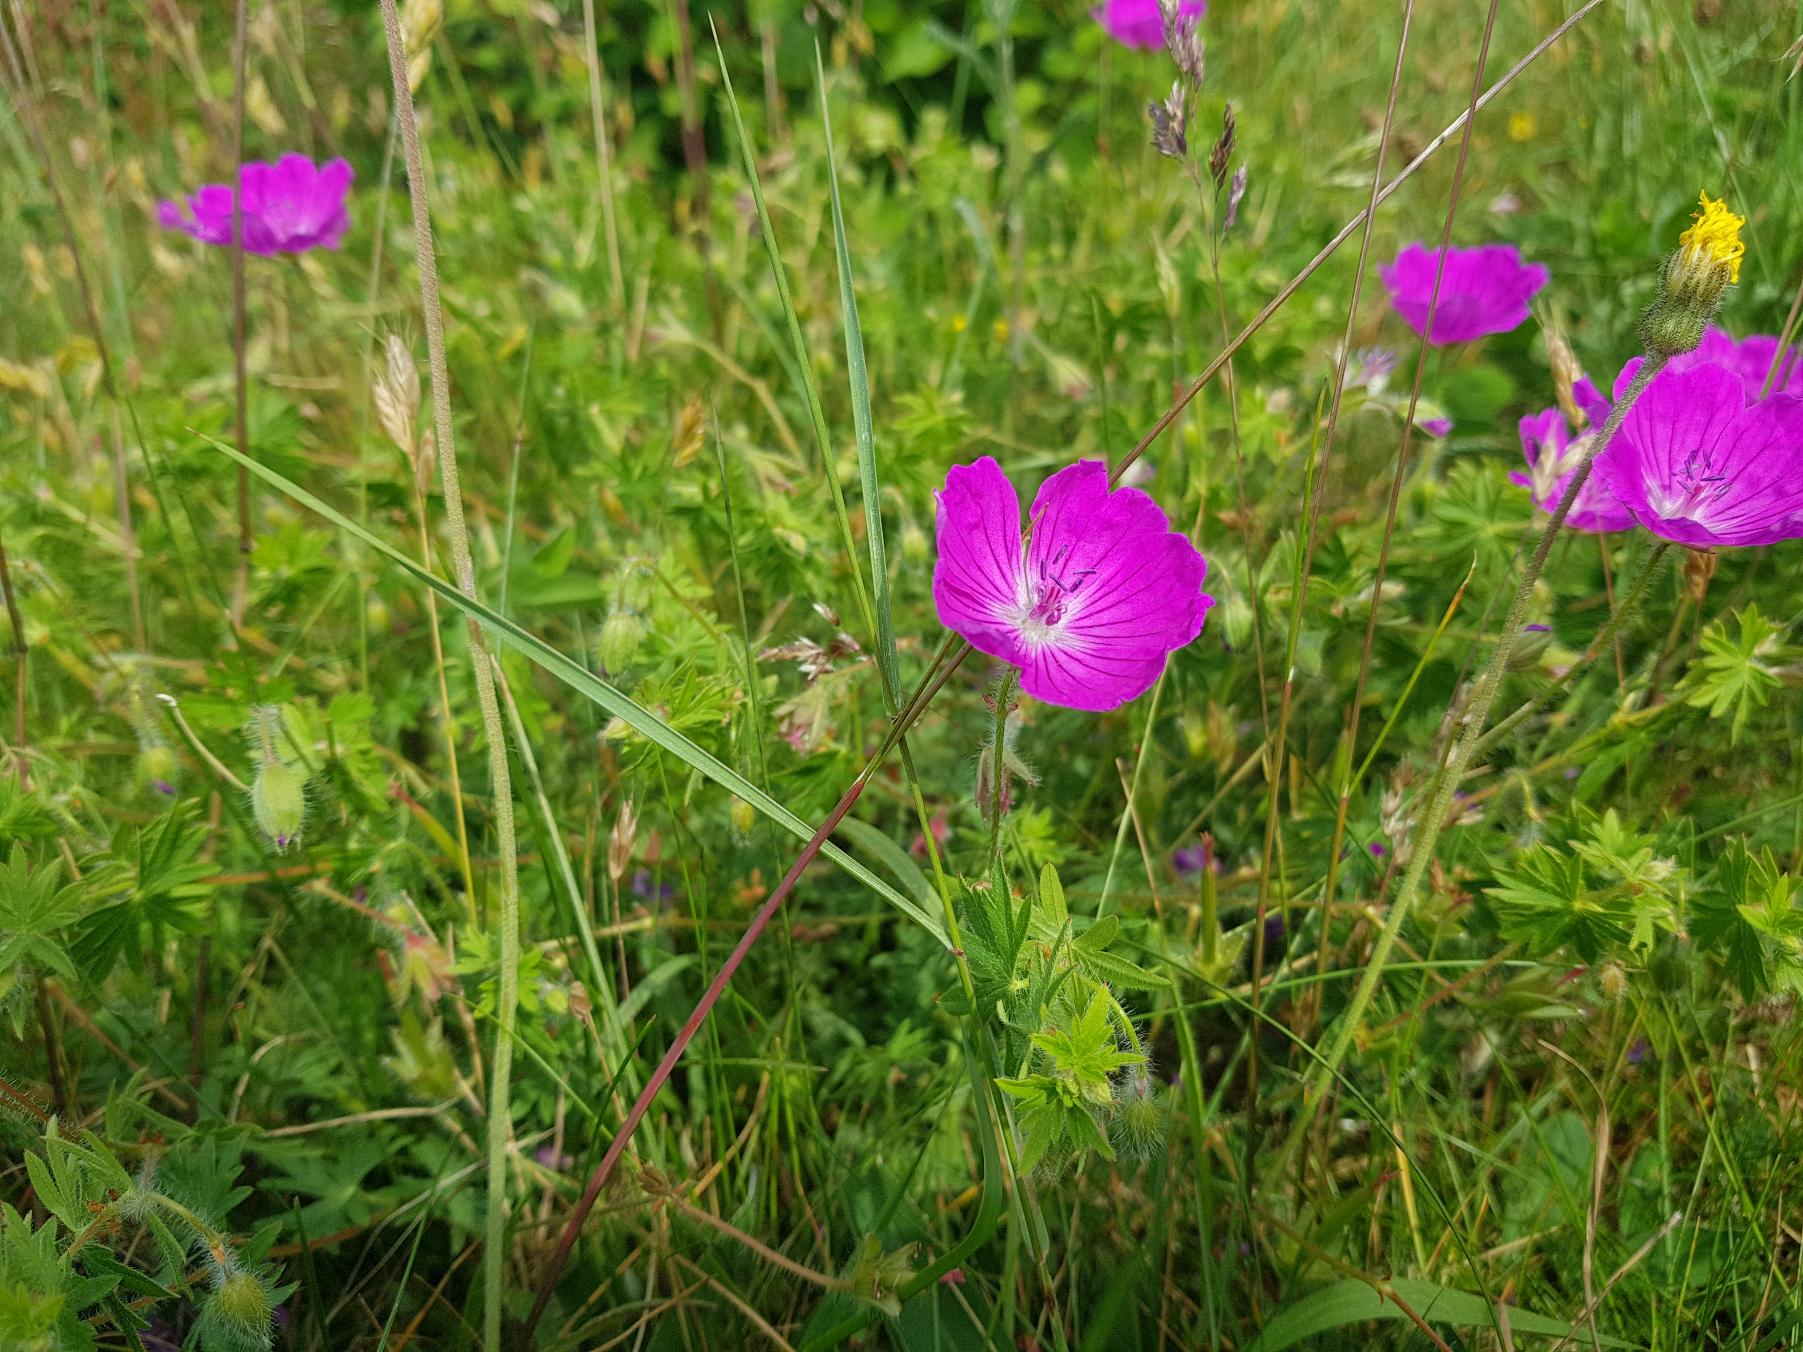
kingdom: Plantae
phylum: Tracheophyta
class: Magnoliopsida
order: Geraniales
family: Geraniaceae
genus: Geranium
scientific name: Geranium sanguineum
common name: Blodrød storkenæb
